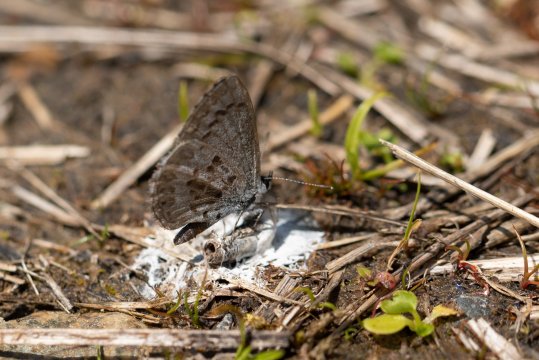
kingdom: Animalia
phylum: Arthropoda
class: Insecta
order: Lepidoptera
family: Lycaenidae
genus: Celastrina
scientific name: Celastrina lucia
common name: Northern Spring Azure
